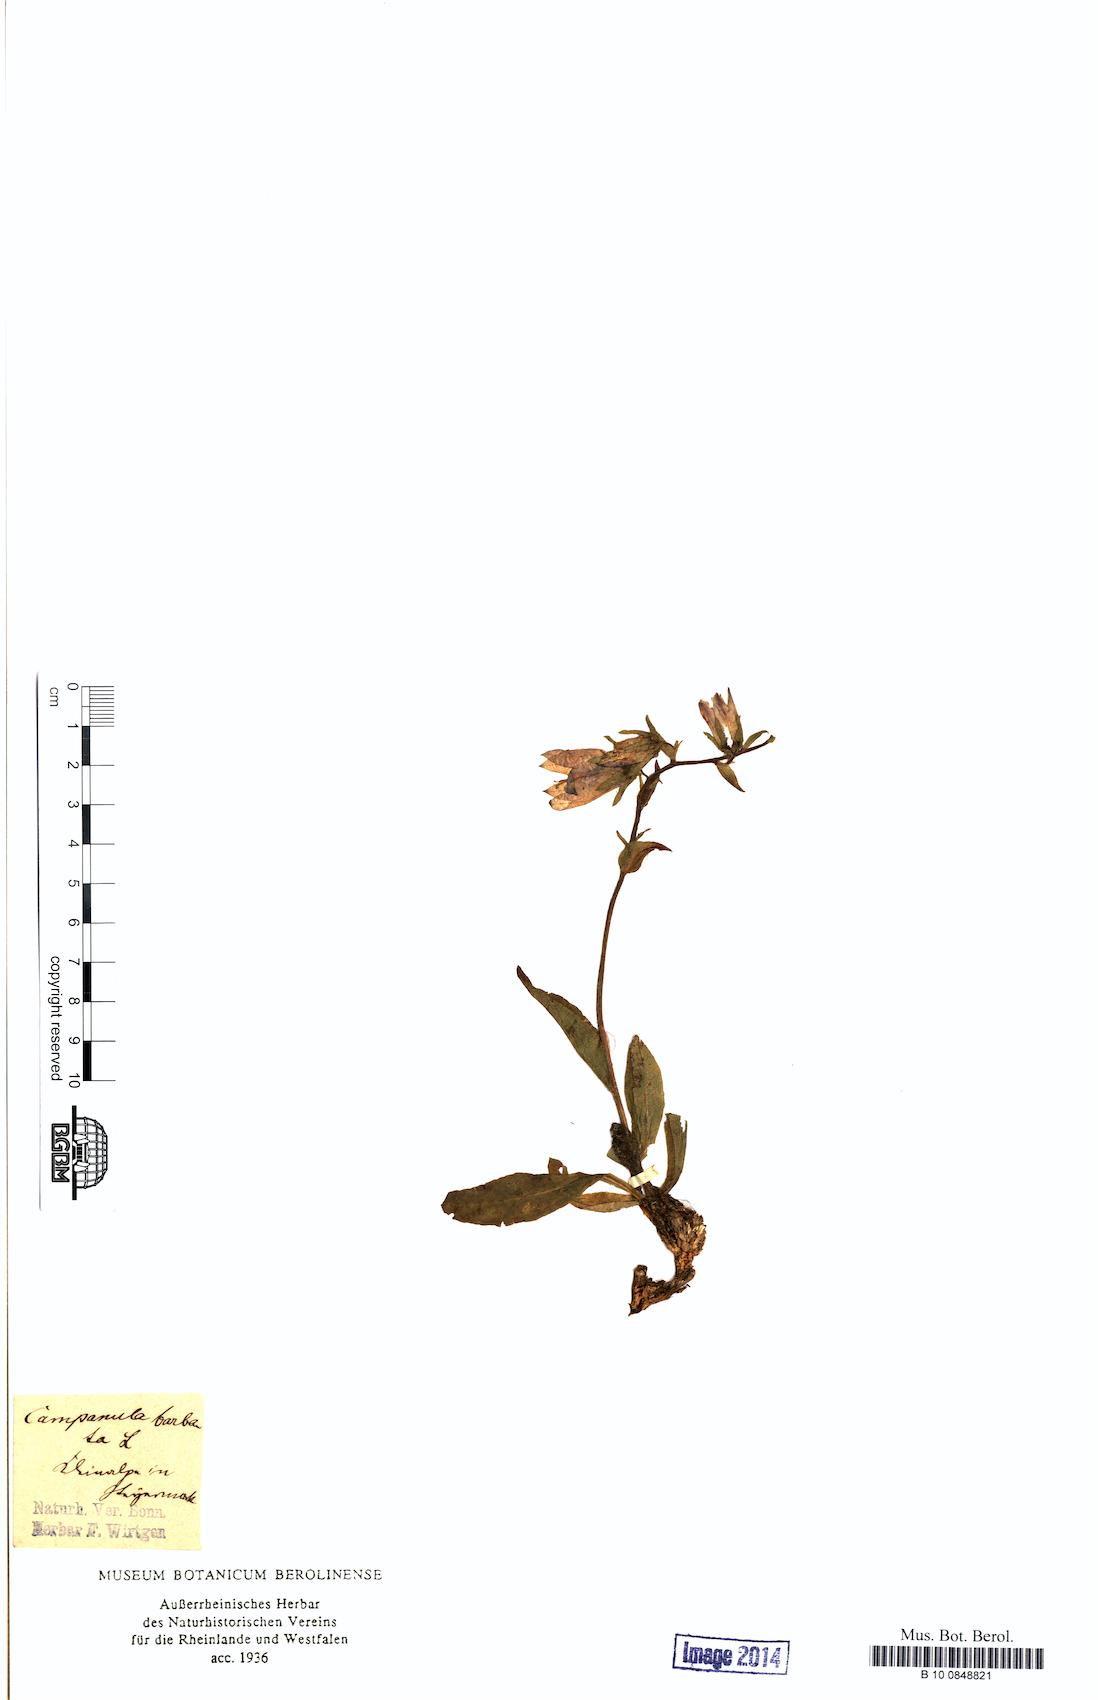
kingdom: Plantae
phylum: Tracheophyta
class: Magnoliopsida
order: Asterales
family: Campanulaceae
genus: Campanula
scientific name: Campanula barbata
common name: Bearded bellflower
